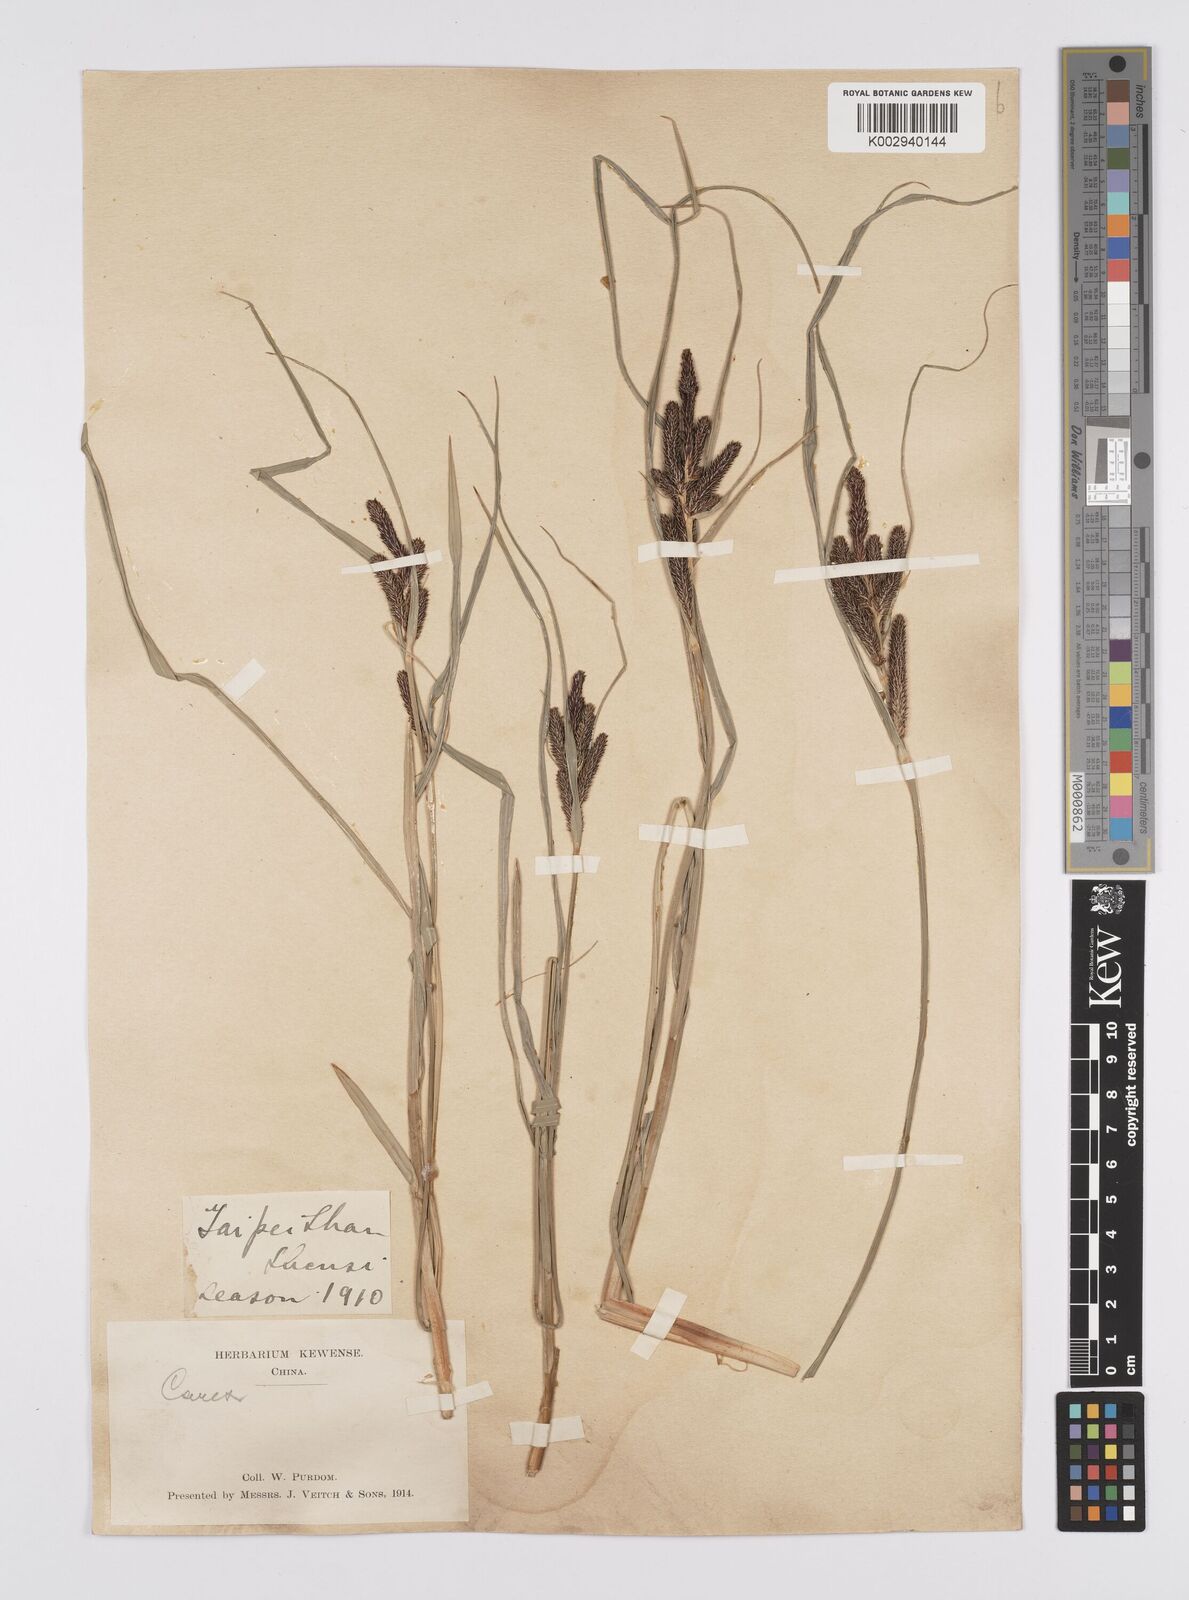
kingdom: Plantae
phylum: Tracheophyta
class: Liliopsida
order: Poales
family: Cyperaceae
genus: Carex
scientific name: Carex cruenta
